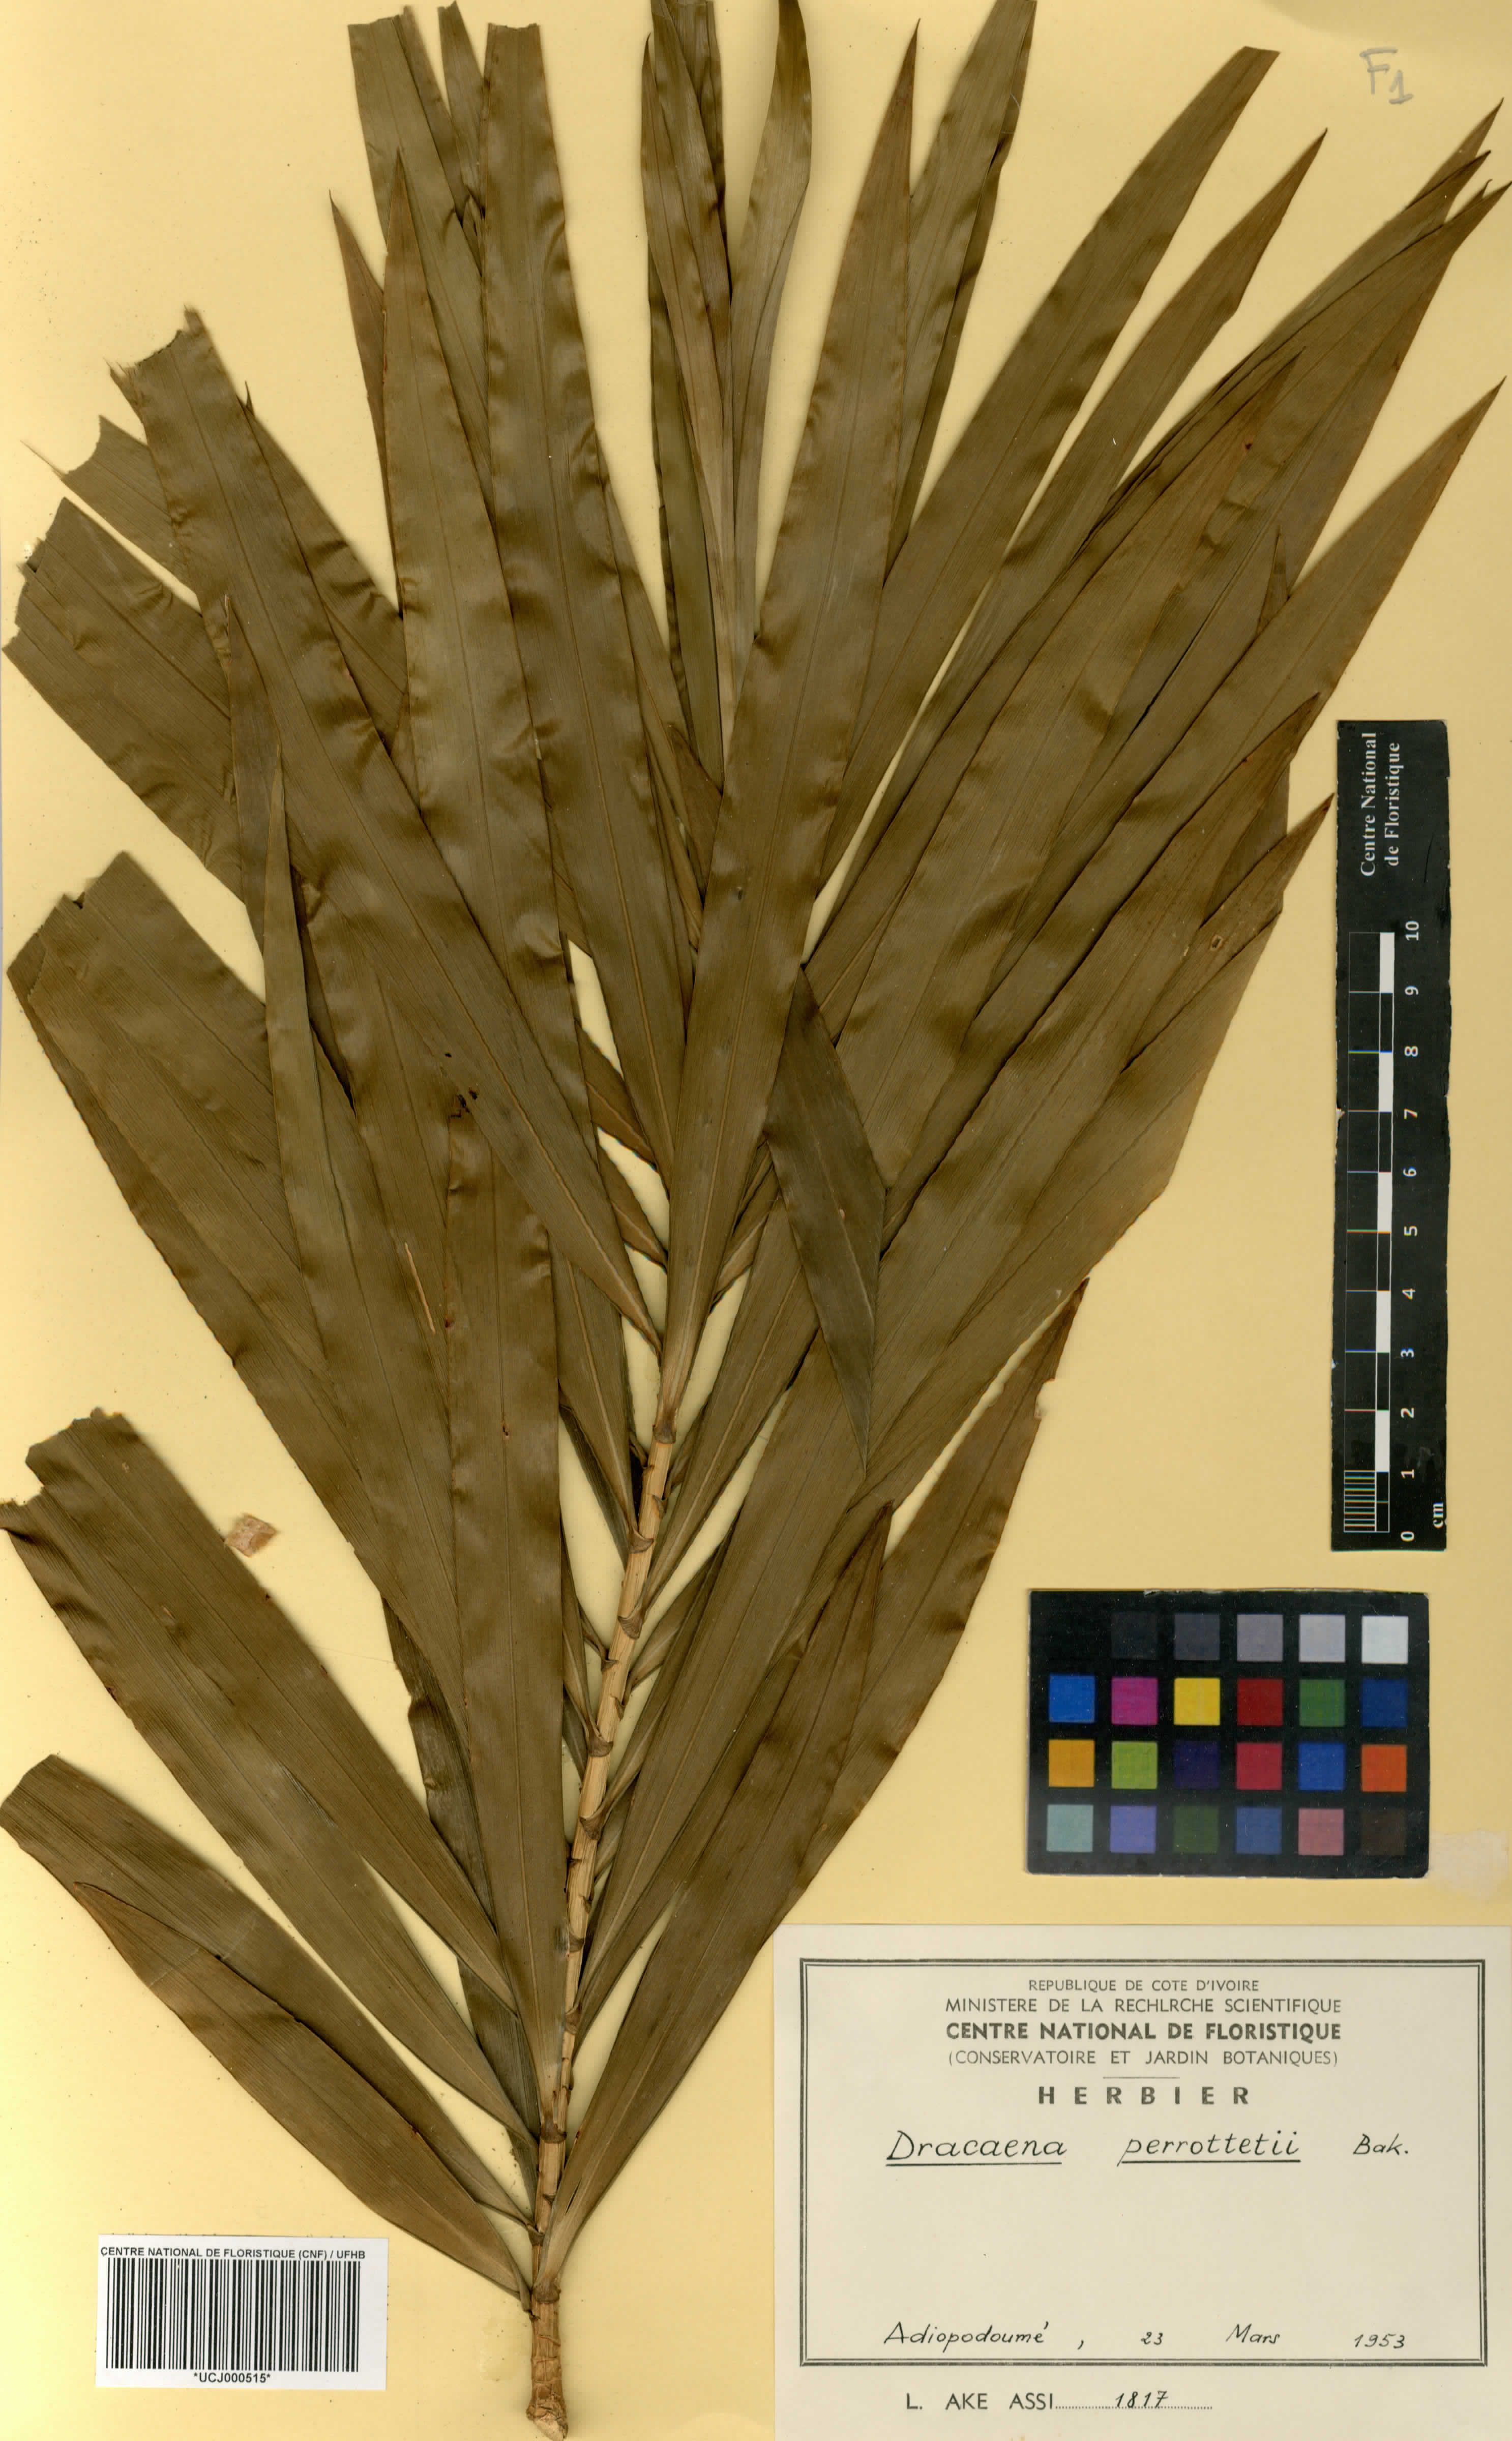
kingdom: Plantae
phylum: Tracheophyta
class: Liliopsida
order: Asparagales
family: Asparagaceae
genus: Dracaena
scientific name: Dracaena perrottetii
